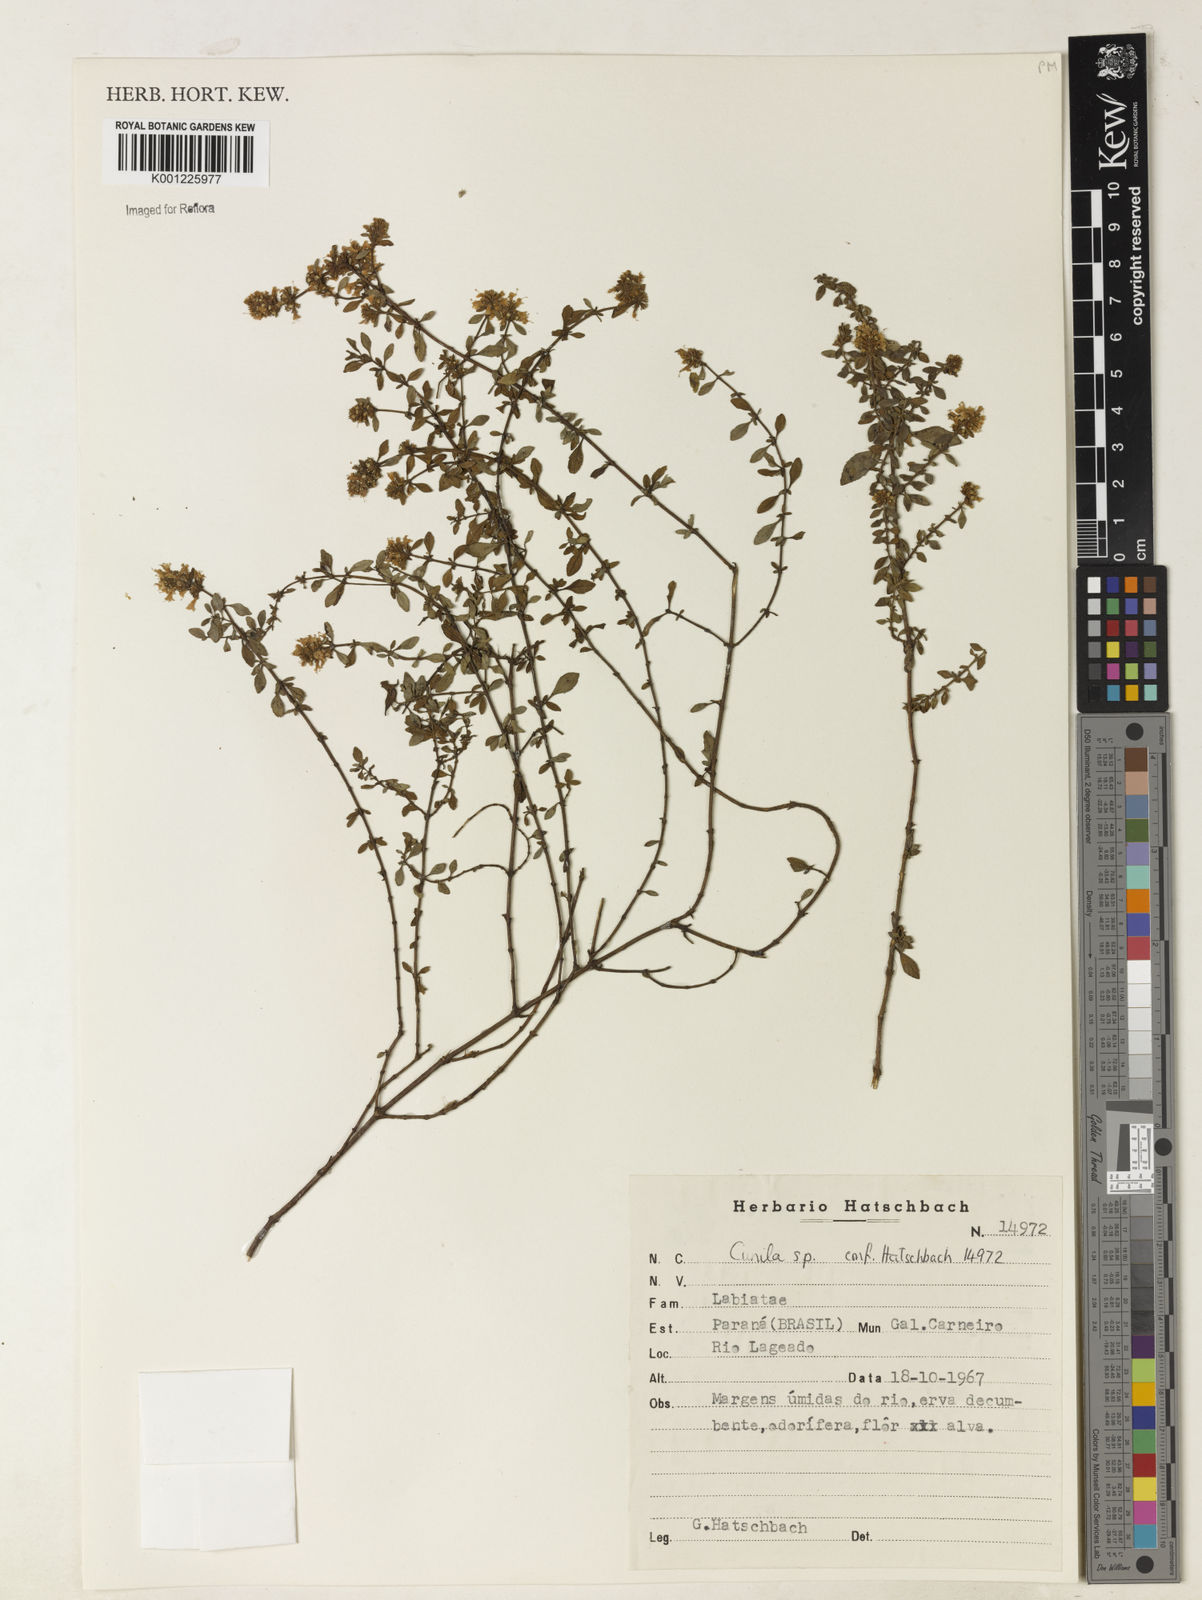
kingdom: Plantae
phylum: Tracheophyta
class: Magnoliopsida
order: Lamiales
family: Lamiaceae
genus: Cunila
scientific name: Cunila
